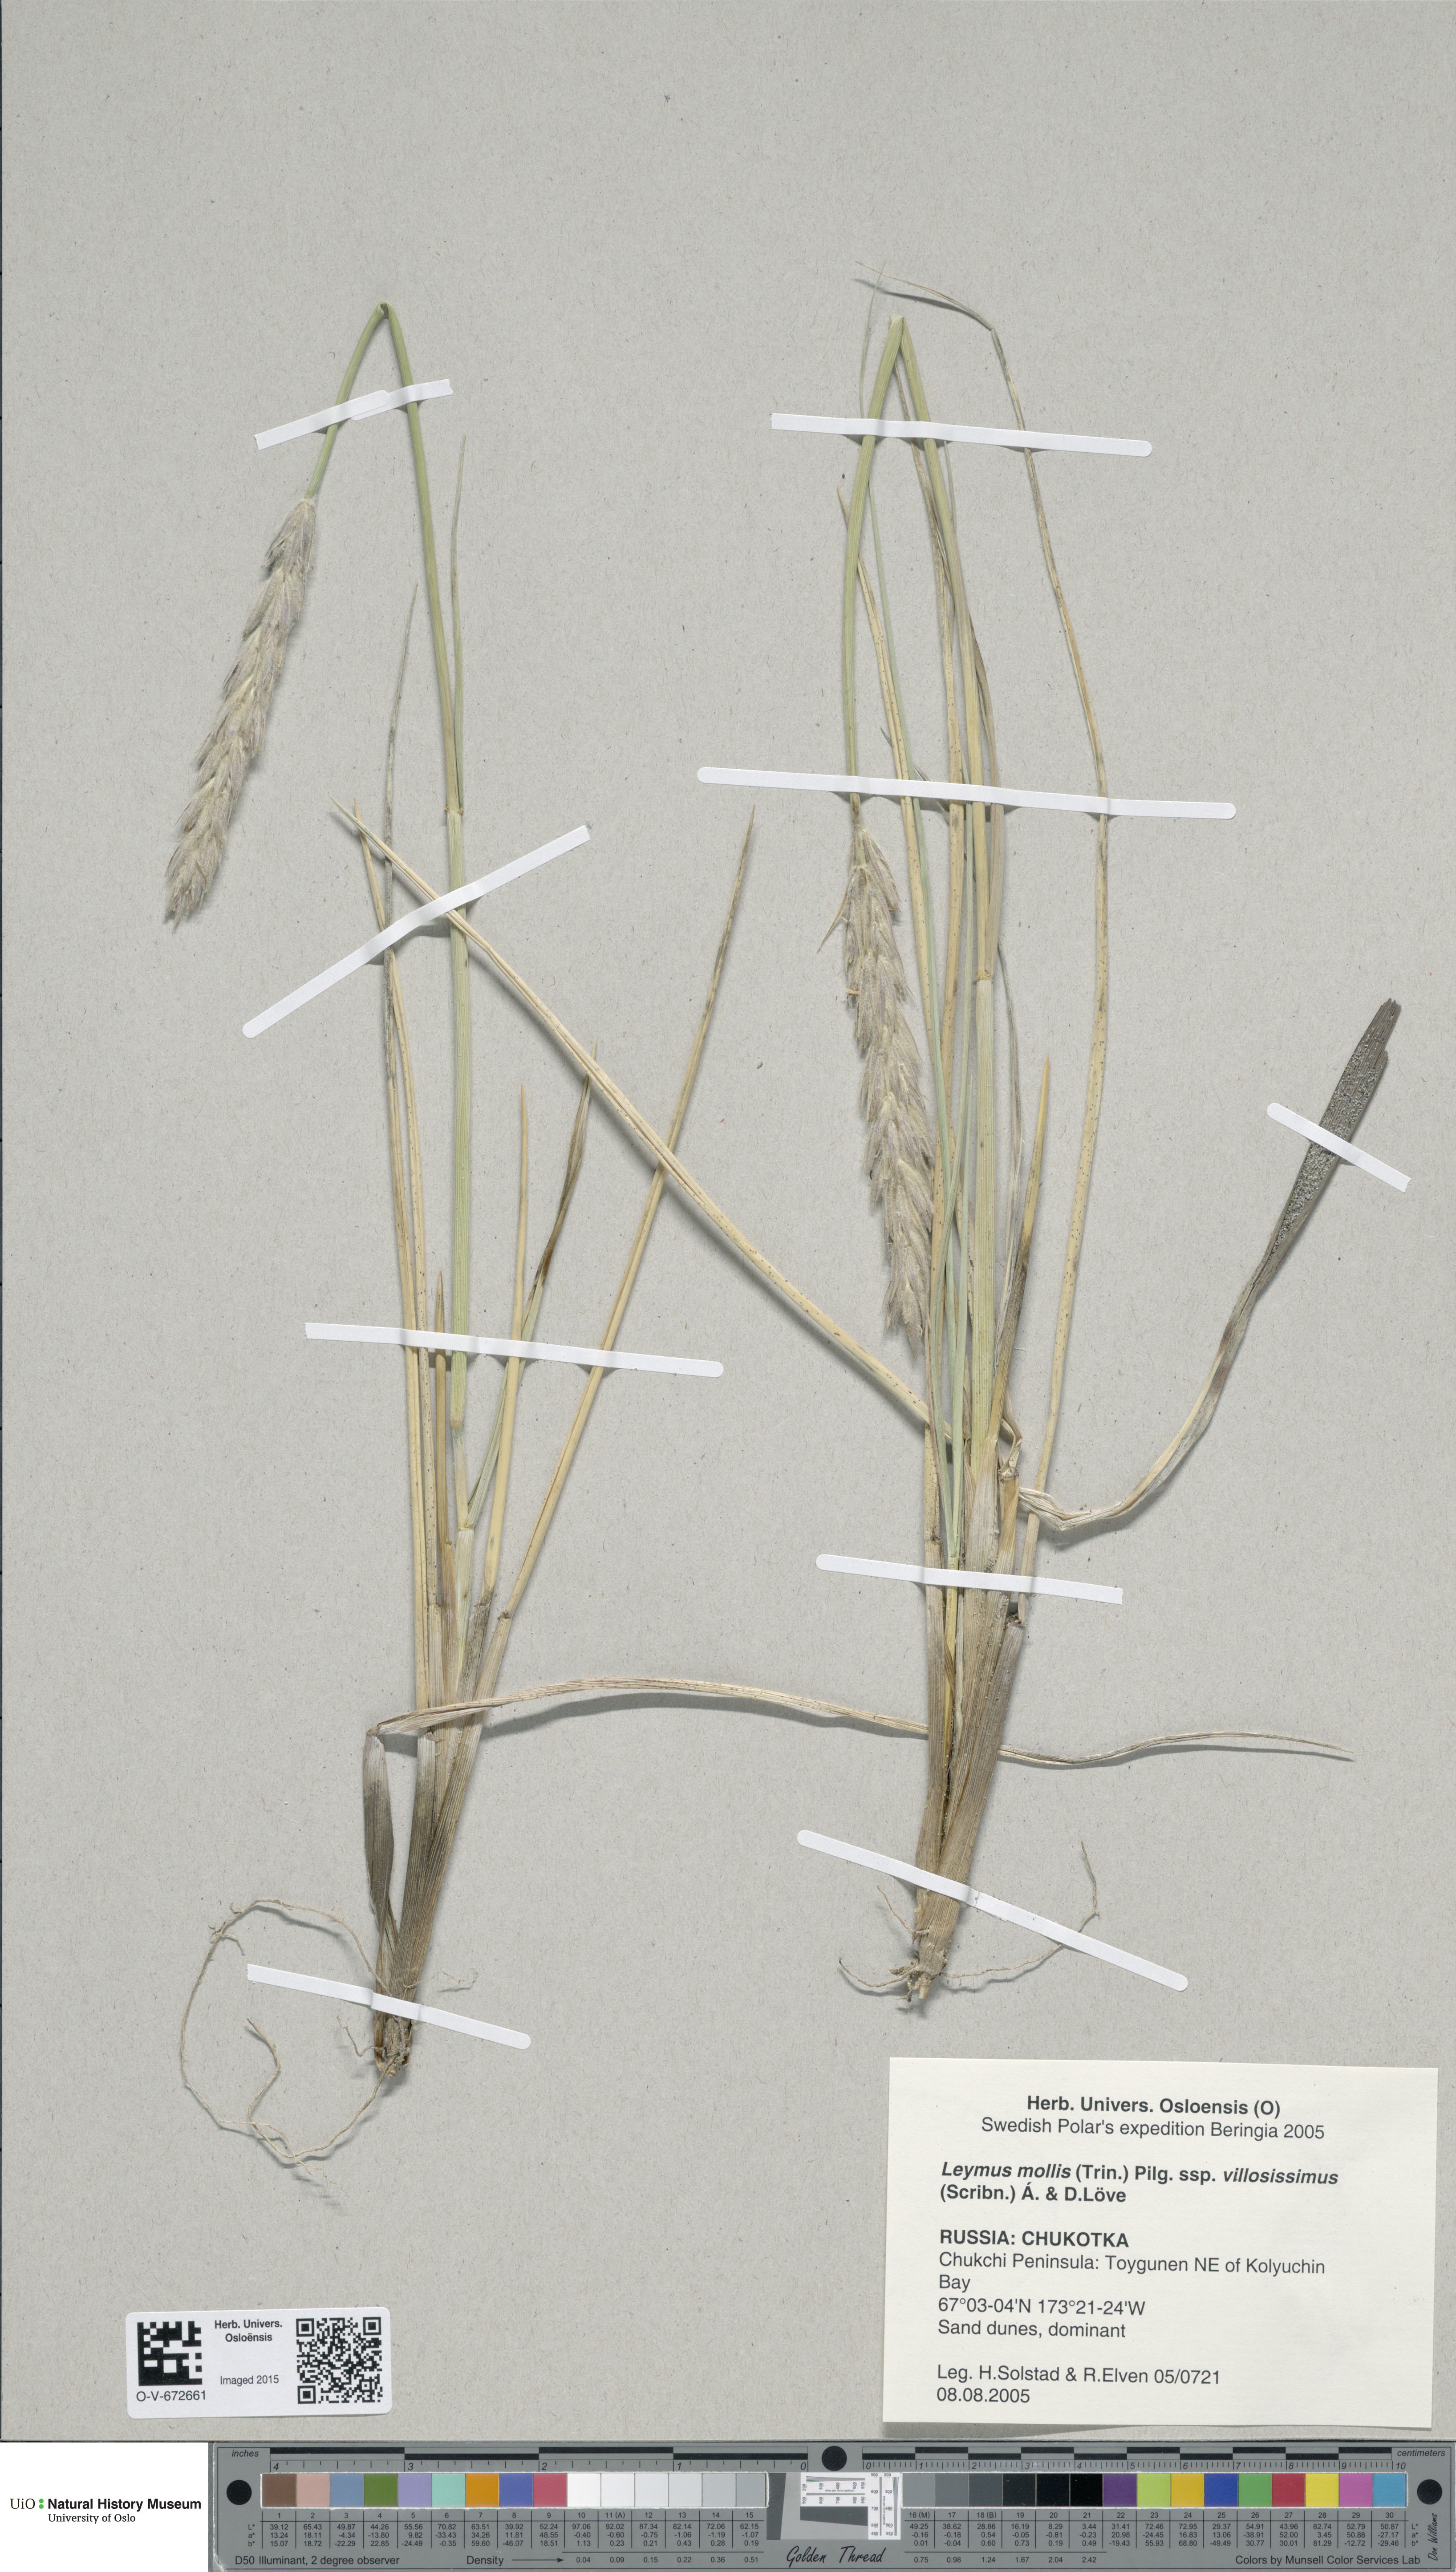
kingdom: Plantae
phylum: Tracheophyta
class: Liliopsida
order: Poales
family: Poaceae
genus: Leymus
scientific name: Leymus mollis
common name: American dune grass
